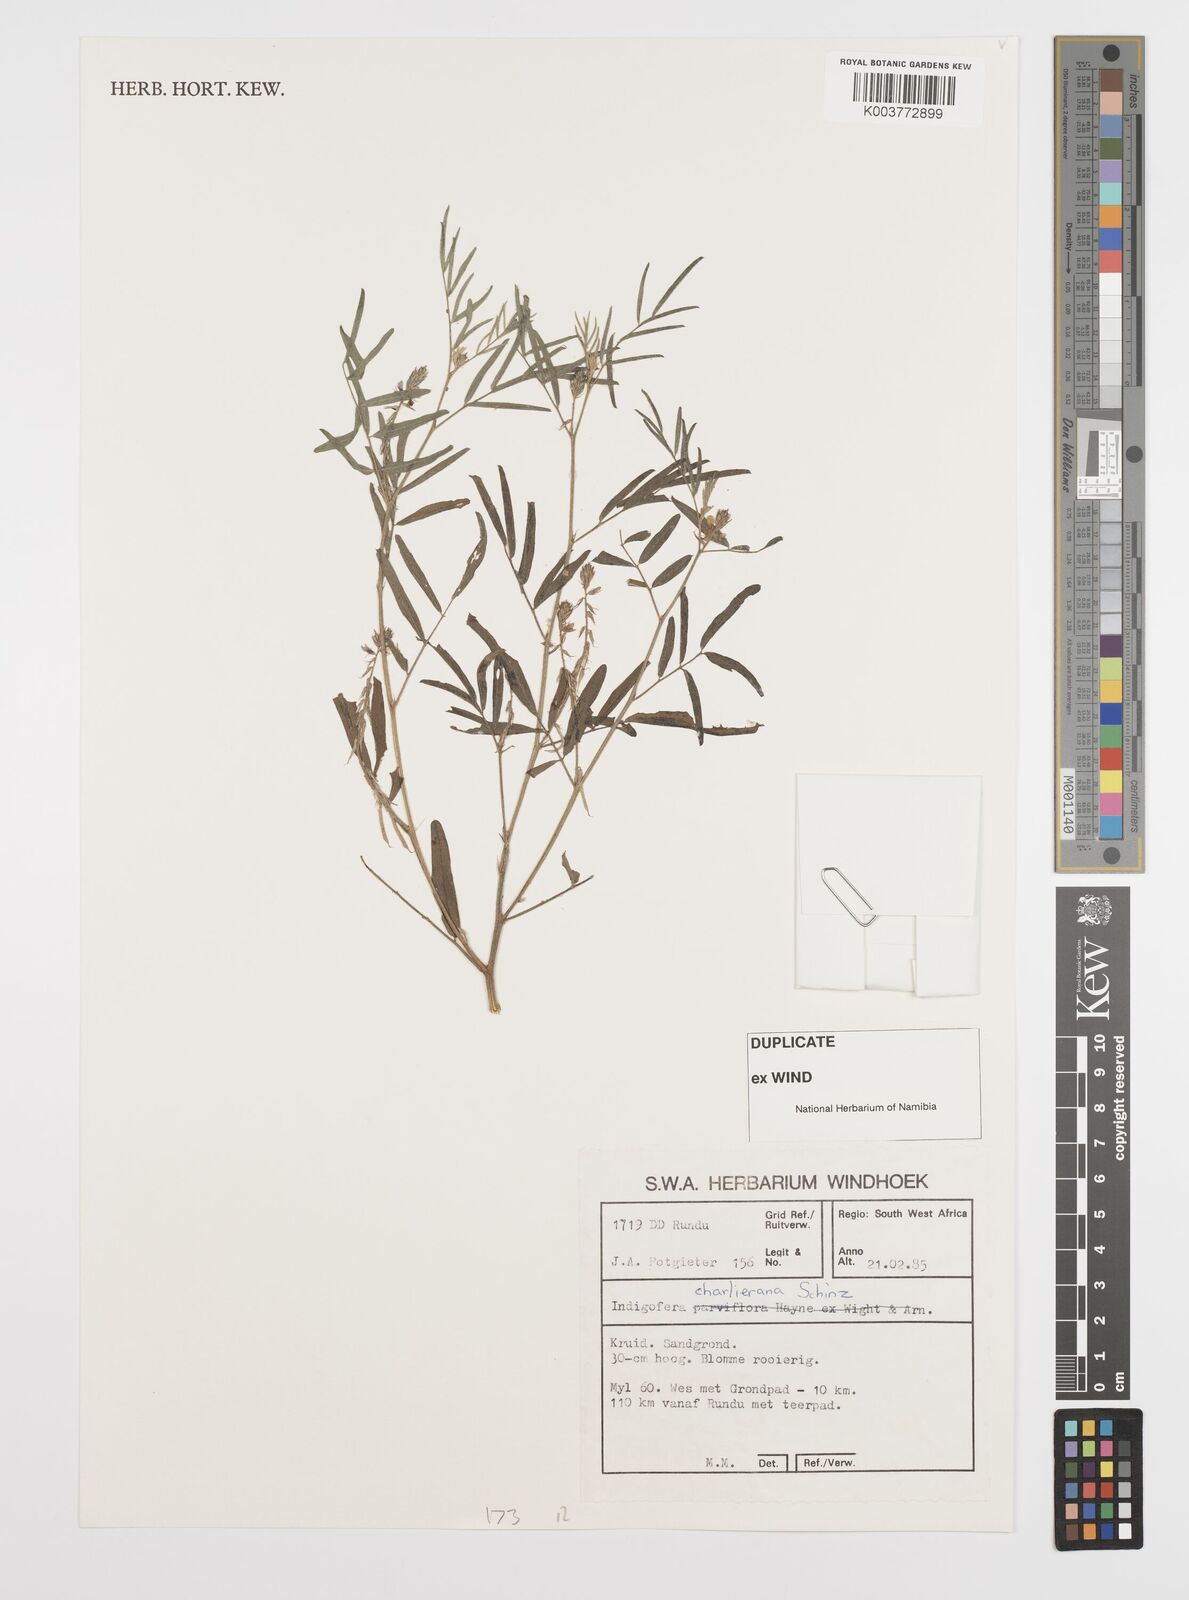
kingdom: Plantae
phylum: Tracheophyta
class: Magnoliopsida
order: Fabales
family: Fabaceae
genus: Indigofera
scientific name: Indigofera charlieriana
